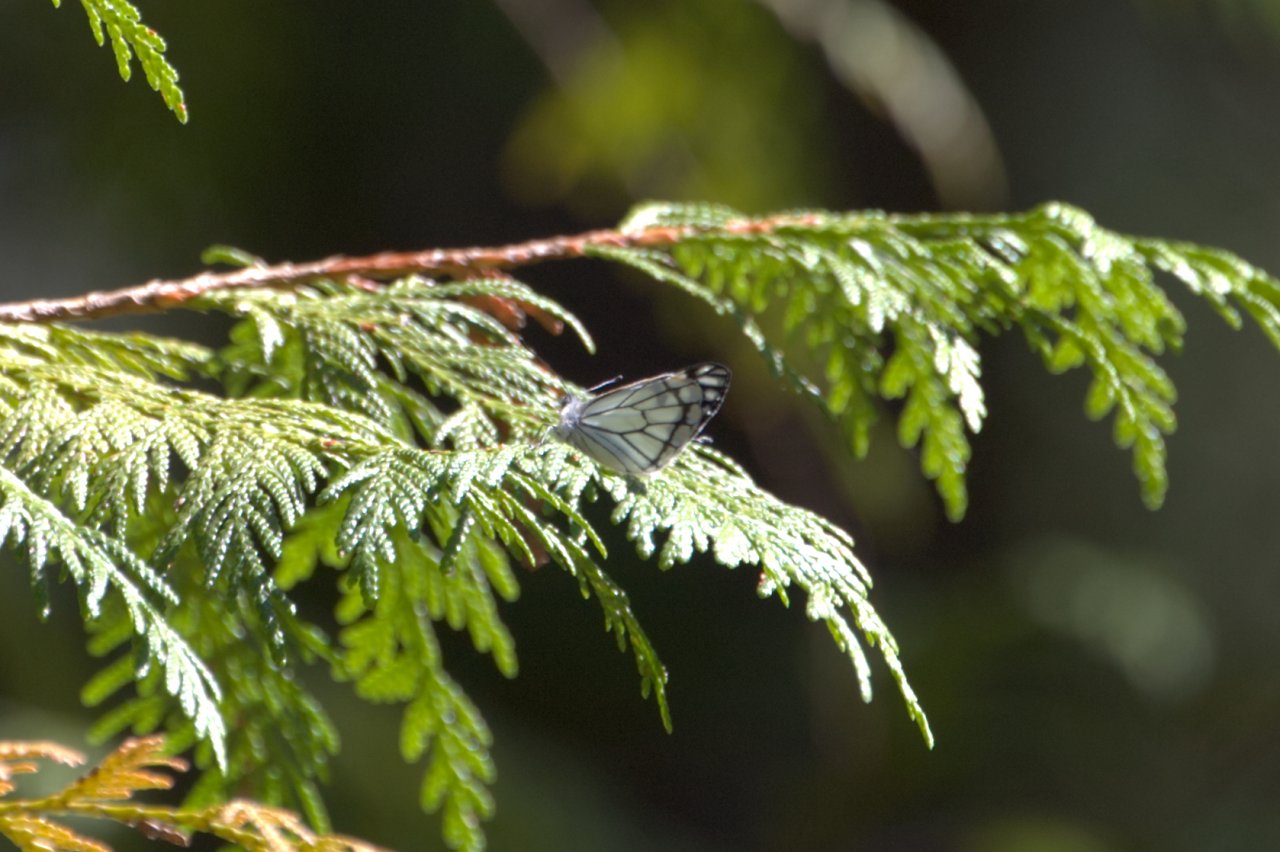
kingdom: Animalia
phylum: Arthropoda
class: Insecta
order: Lepidoptera
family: Pieridae
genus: Neophasia
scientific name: Neophasia menapia
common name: Pine White
